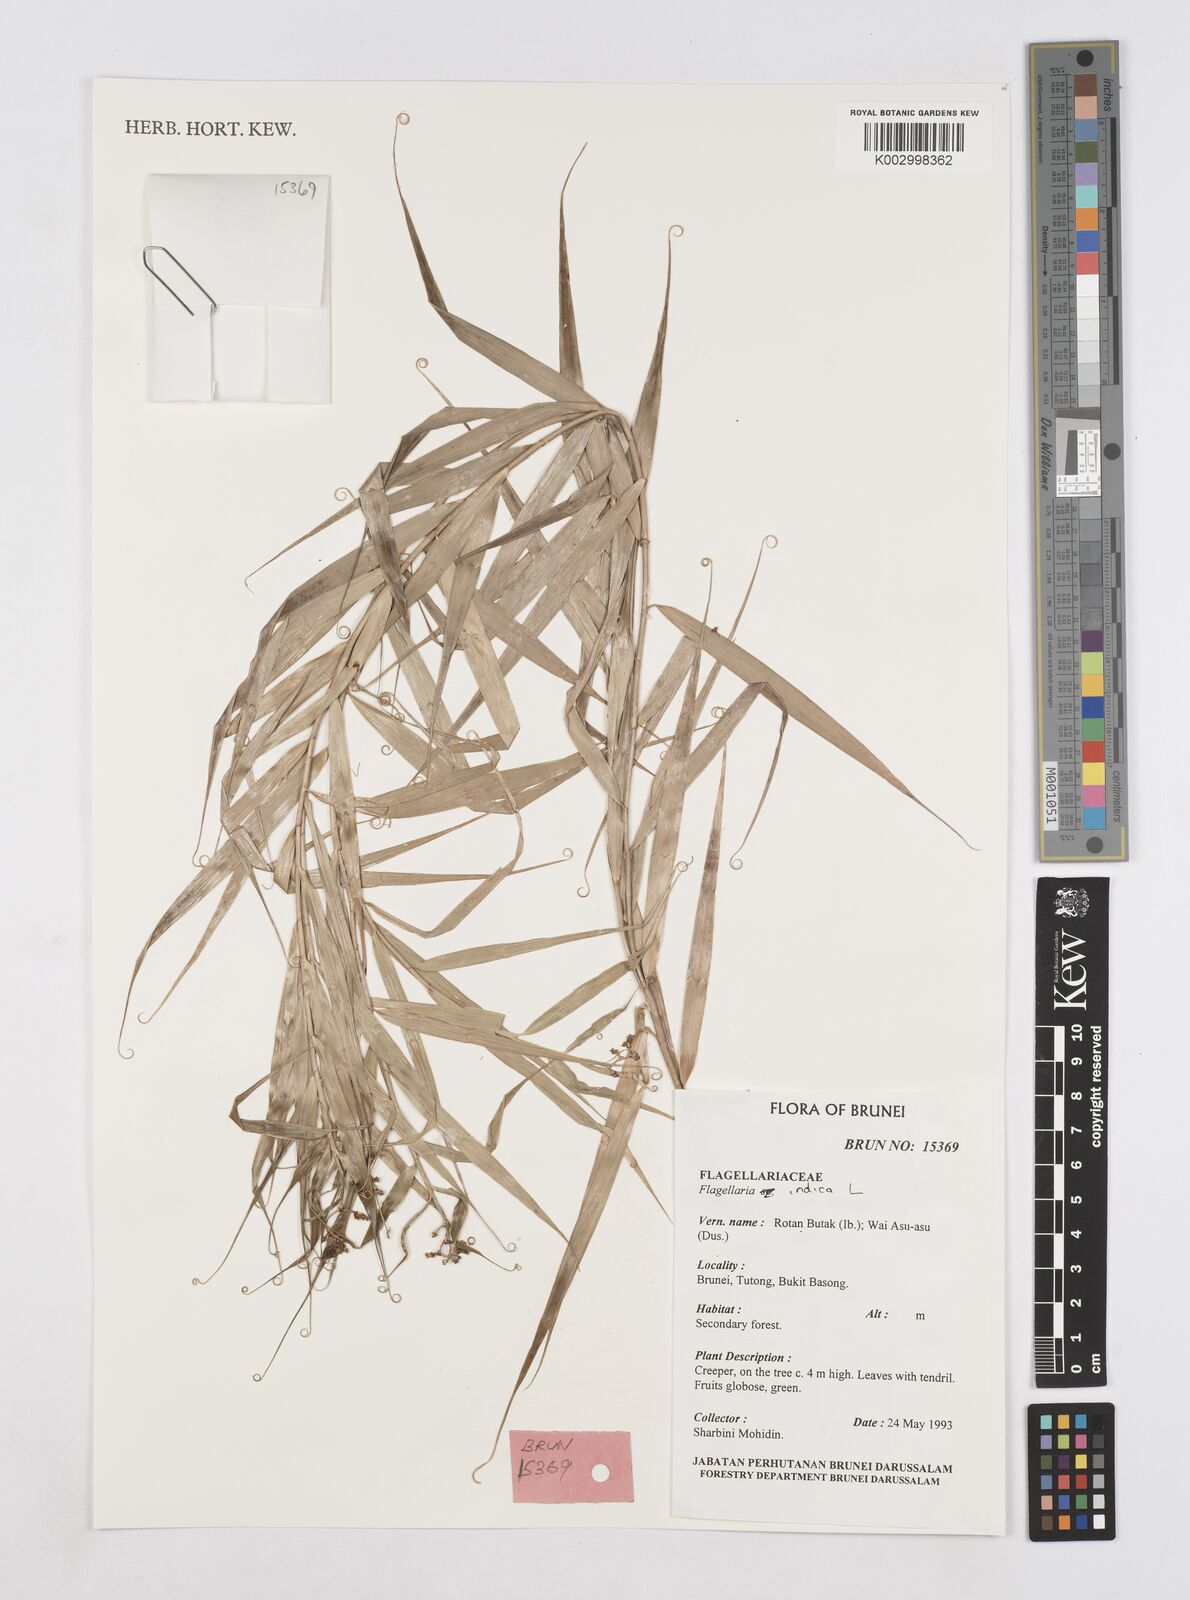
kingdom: Plantae
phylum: Tracheophyta
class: Liliopsida
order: Poales
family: Flagellariaceae
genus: Flagellaria
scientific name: Flagellaria indica
